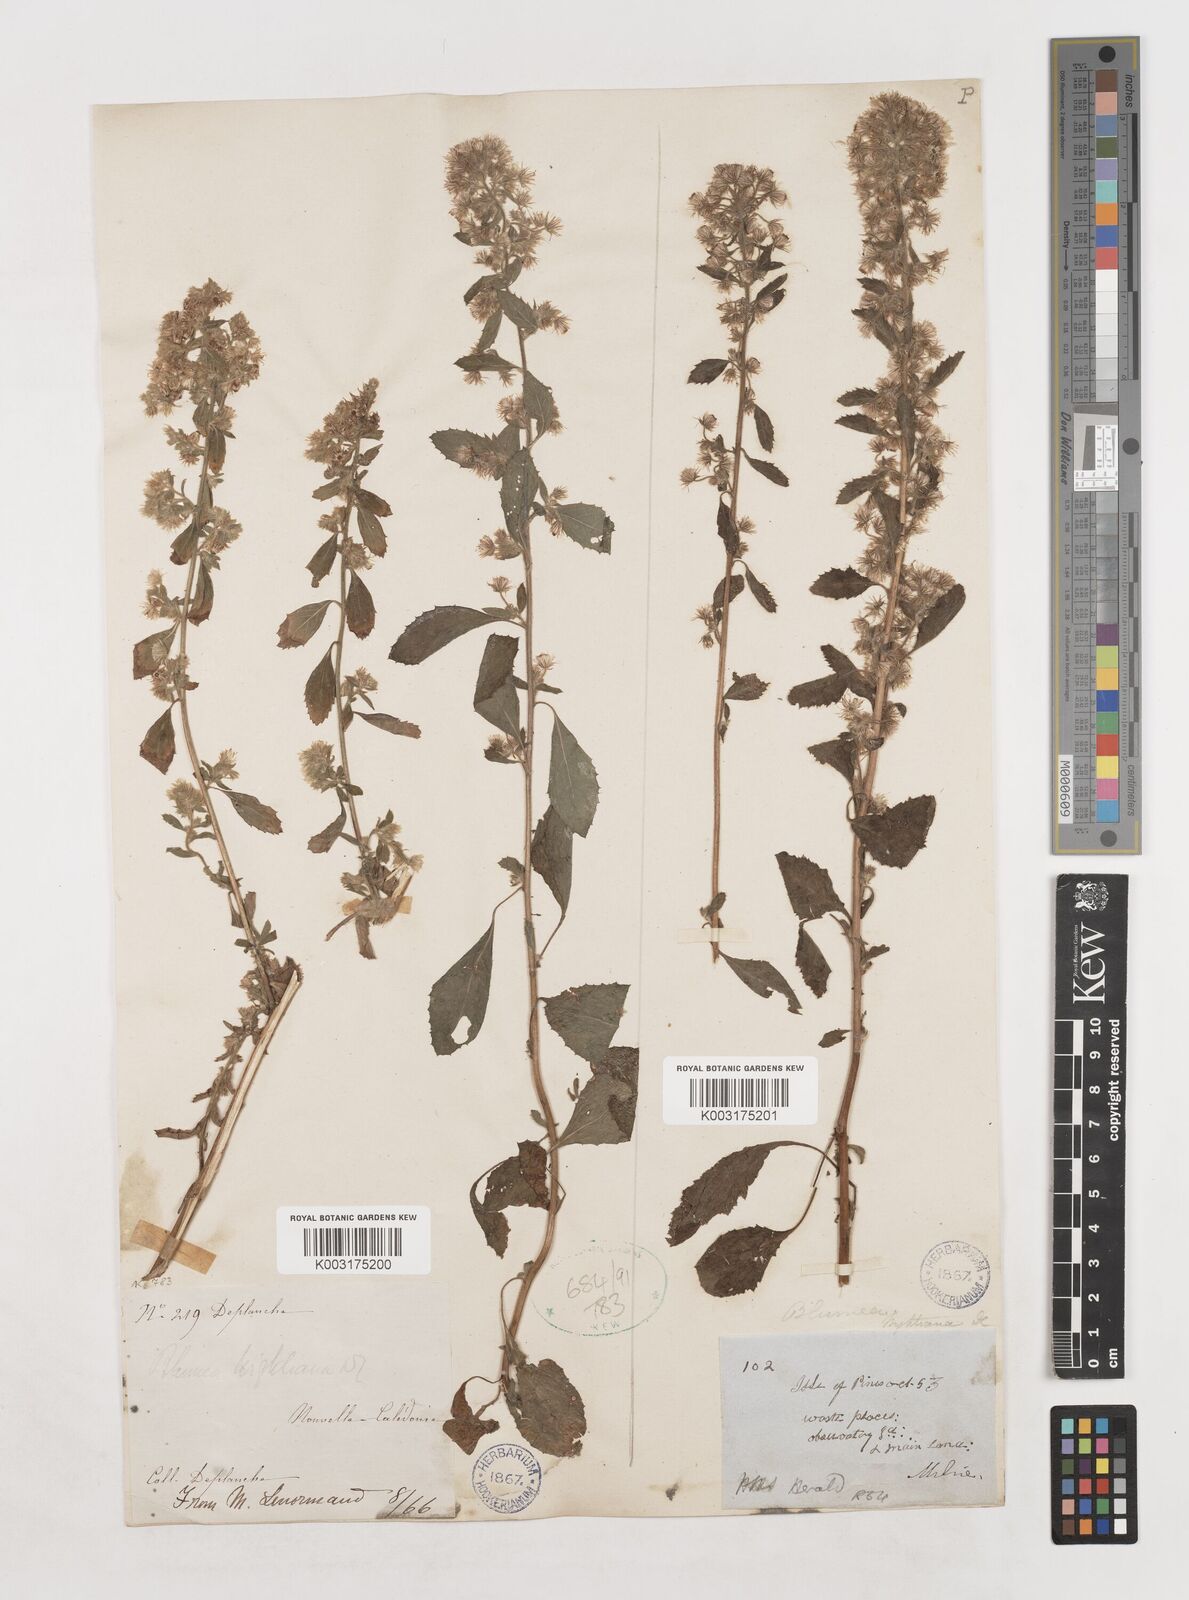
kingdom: Plantae
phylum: Tracheophyta
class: Magnoliopsida
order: Asterales
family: Asteraceae
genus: Blumea
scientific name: Blumea lacera
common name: Malay blumea
